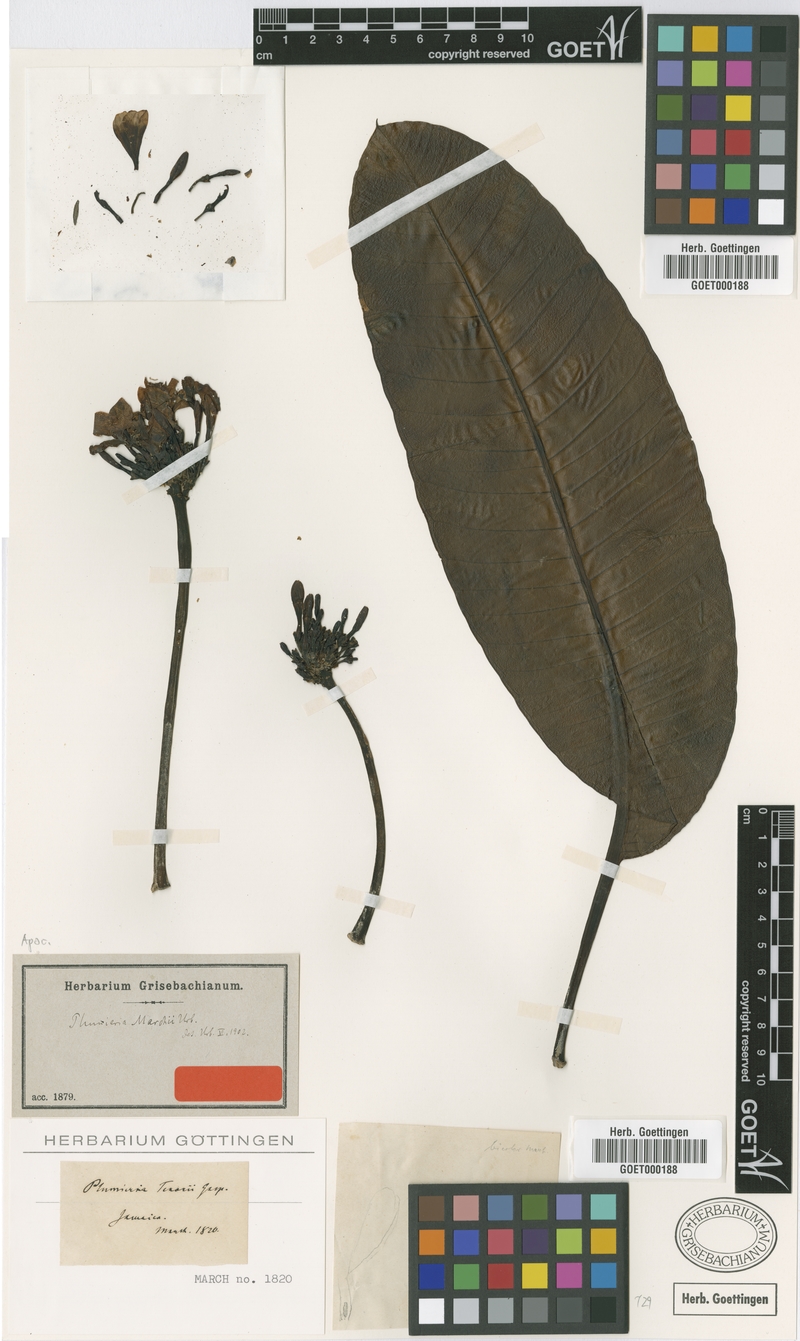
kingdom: Plantae
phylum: Tracheophyta
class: Magnoliopsida
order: Gentianales
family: Apocynaceae
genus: Plumeria
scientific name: Plumeria obtusa
